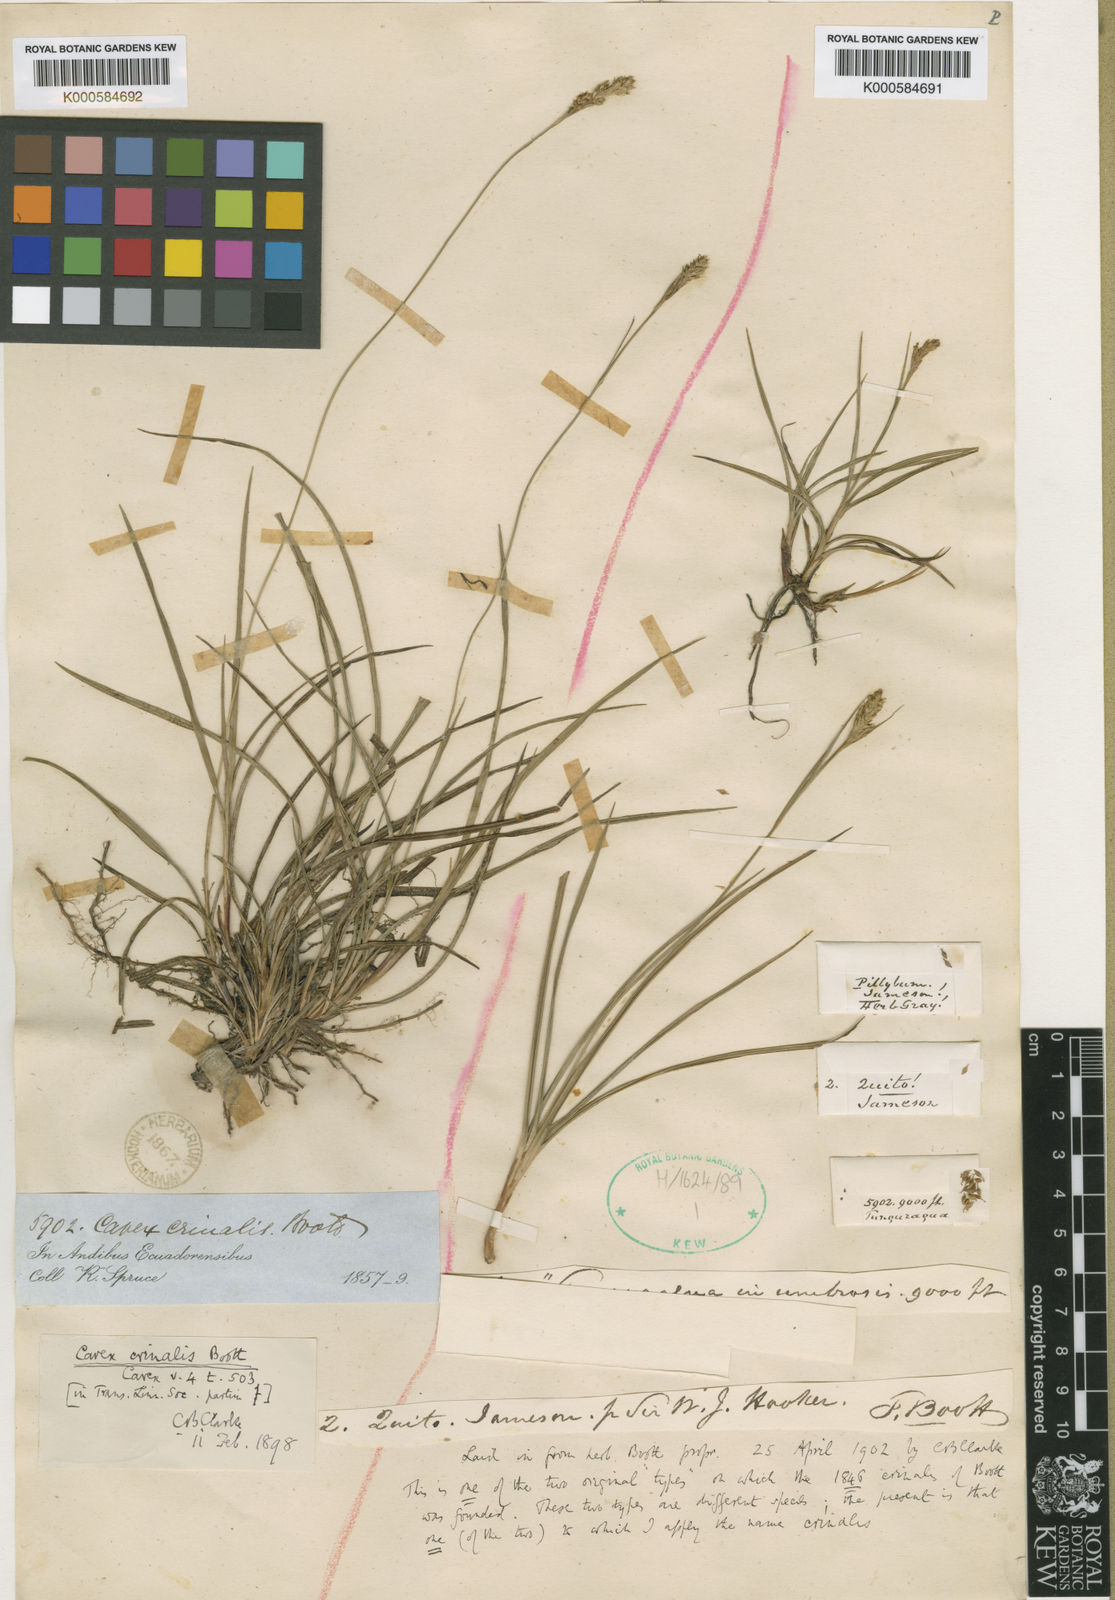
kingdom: Plantae
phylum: Tracheophyta
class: Liliopsida
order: Poales
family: Cyperaceae
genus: Carex
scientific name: Carex crinalis
